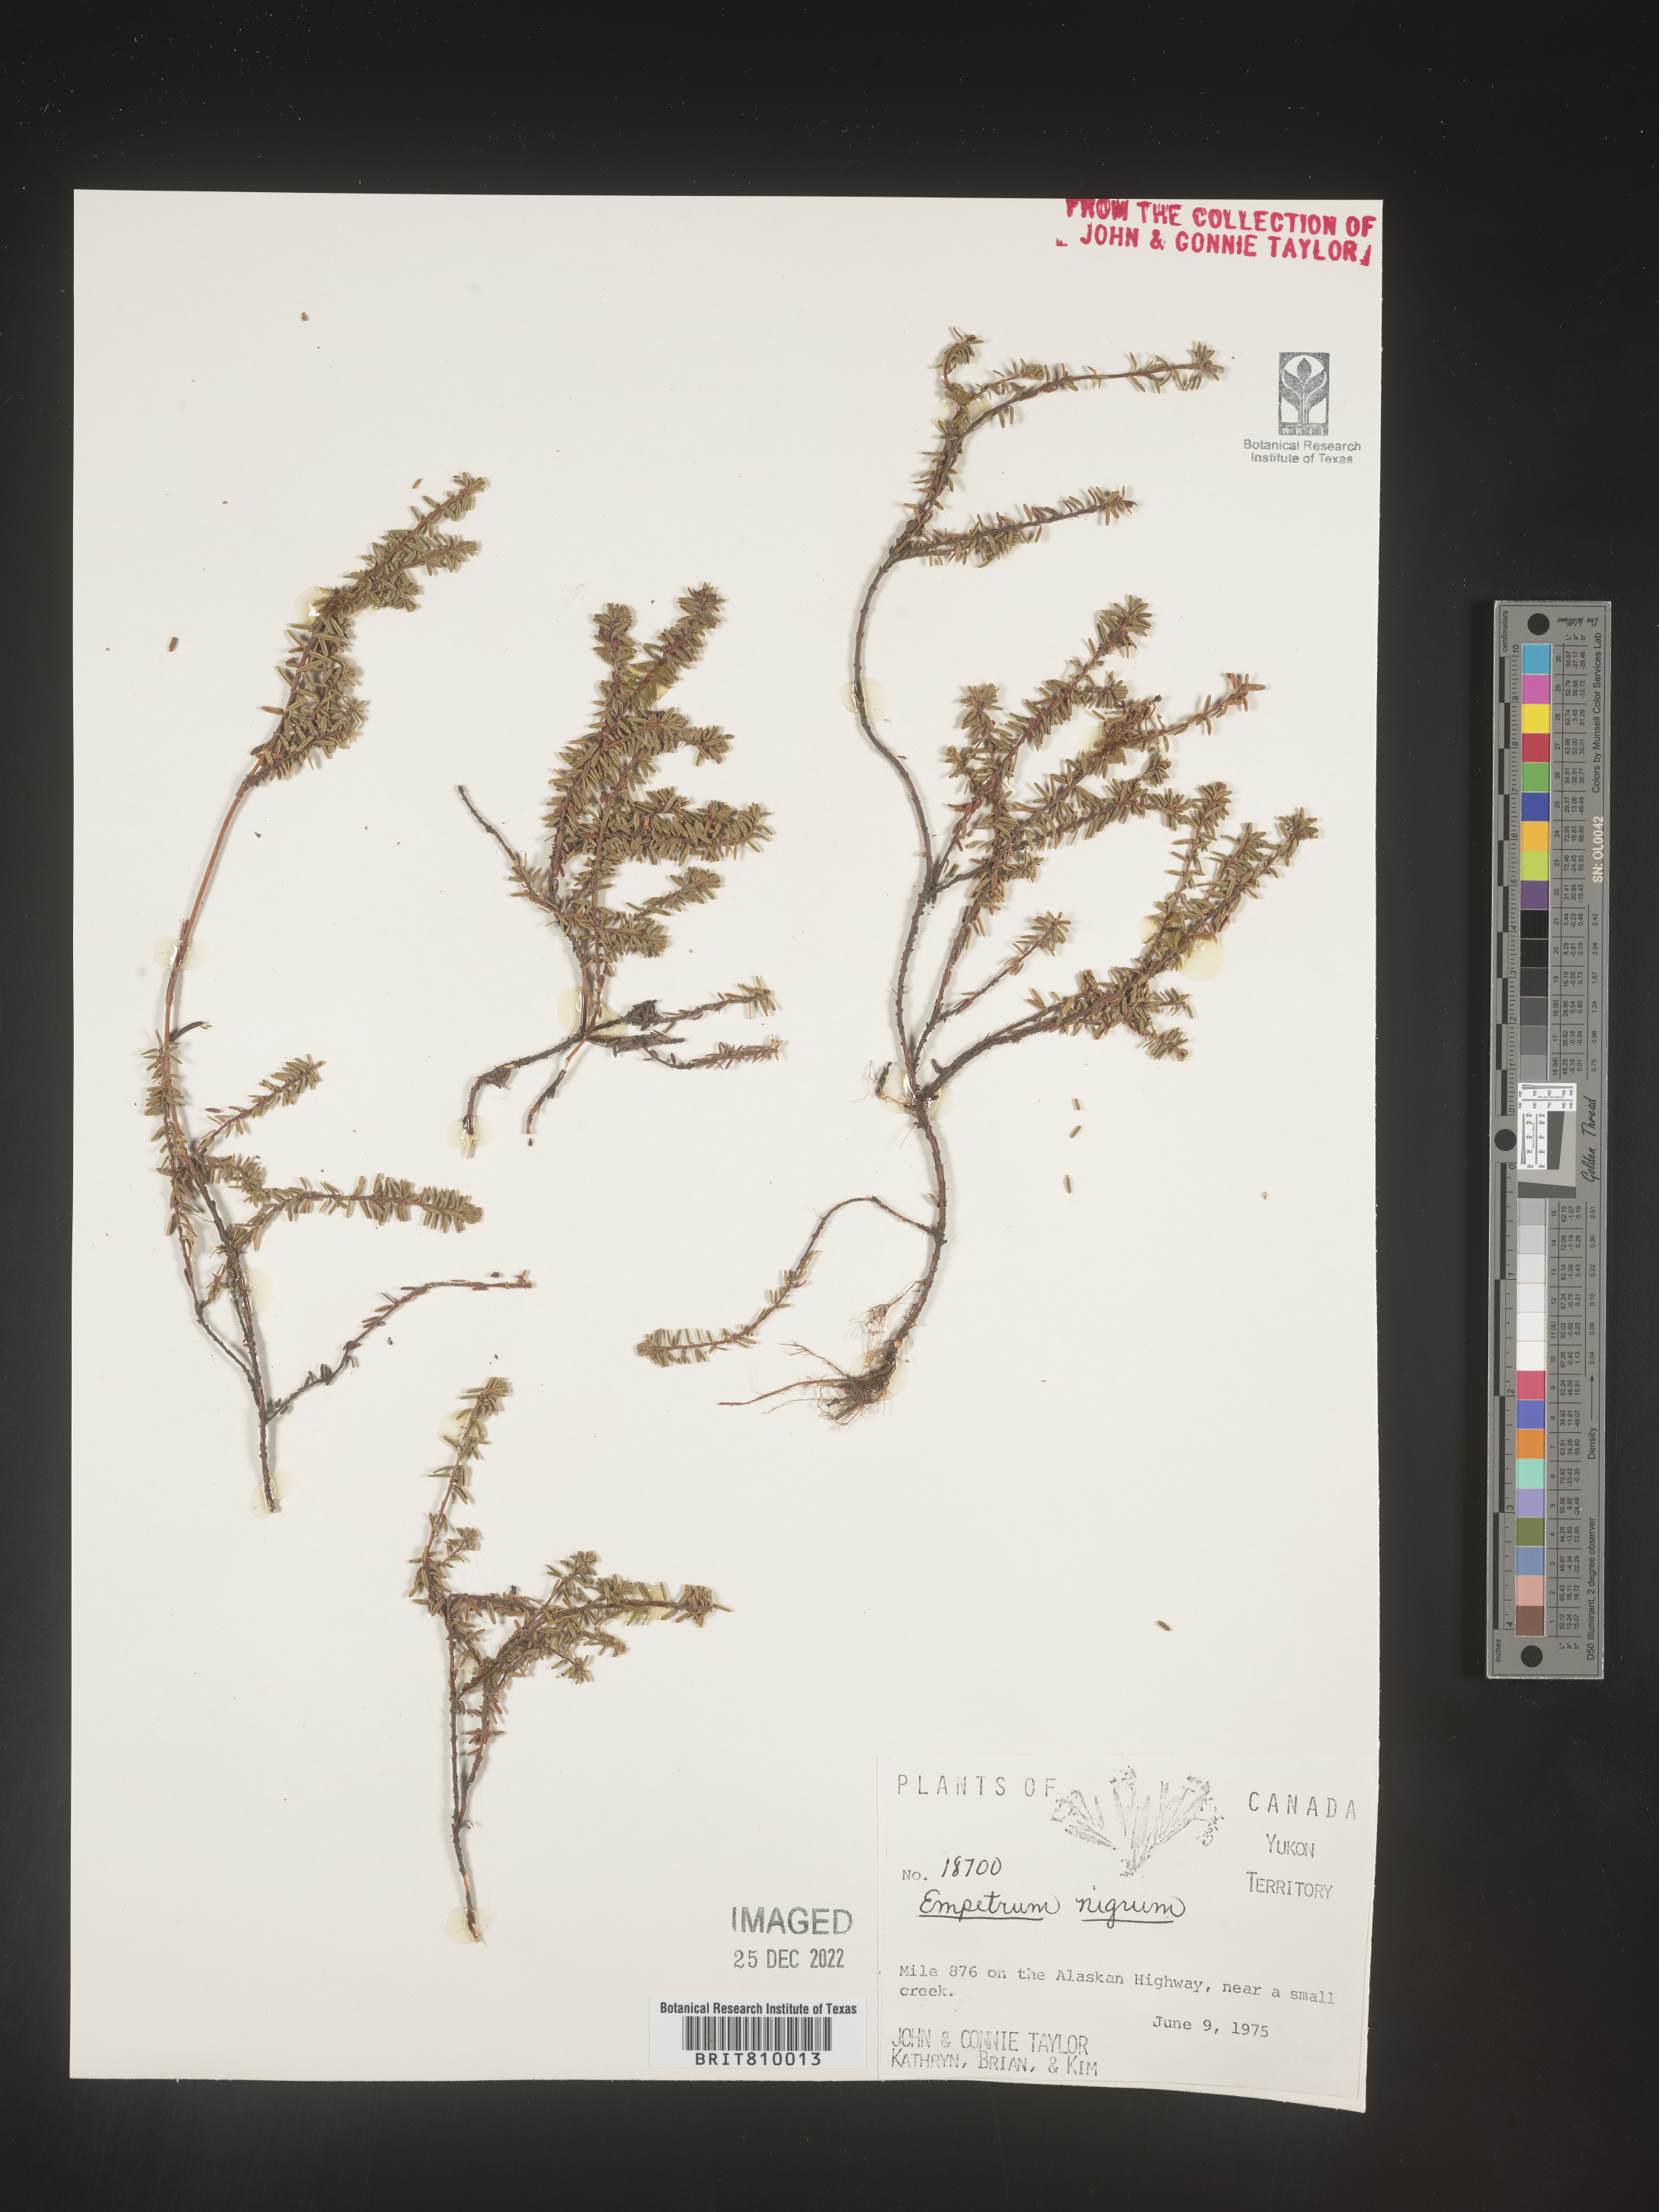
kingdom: Plantae
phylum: Tracheophyta
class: Magnoliopsida
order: Ericales
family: Ericaceae
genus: Empetrum
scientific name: Empetrum
